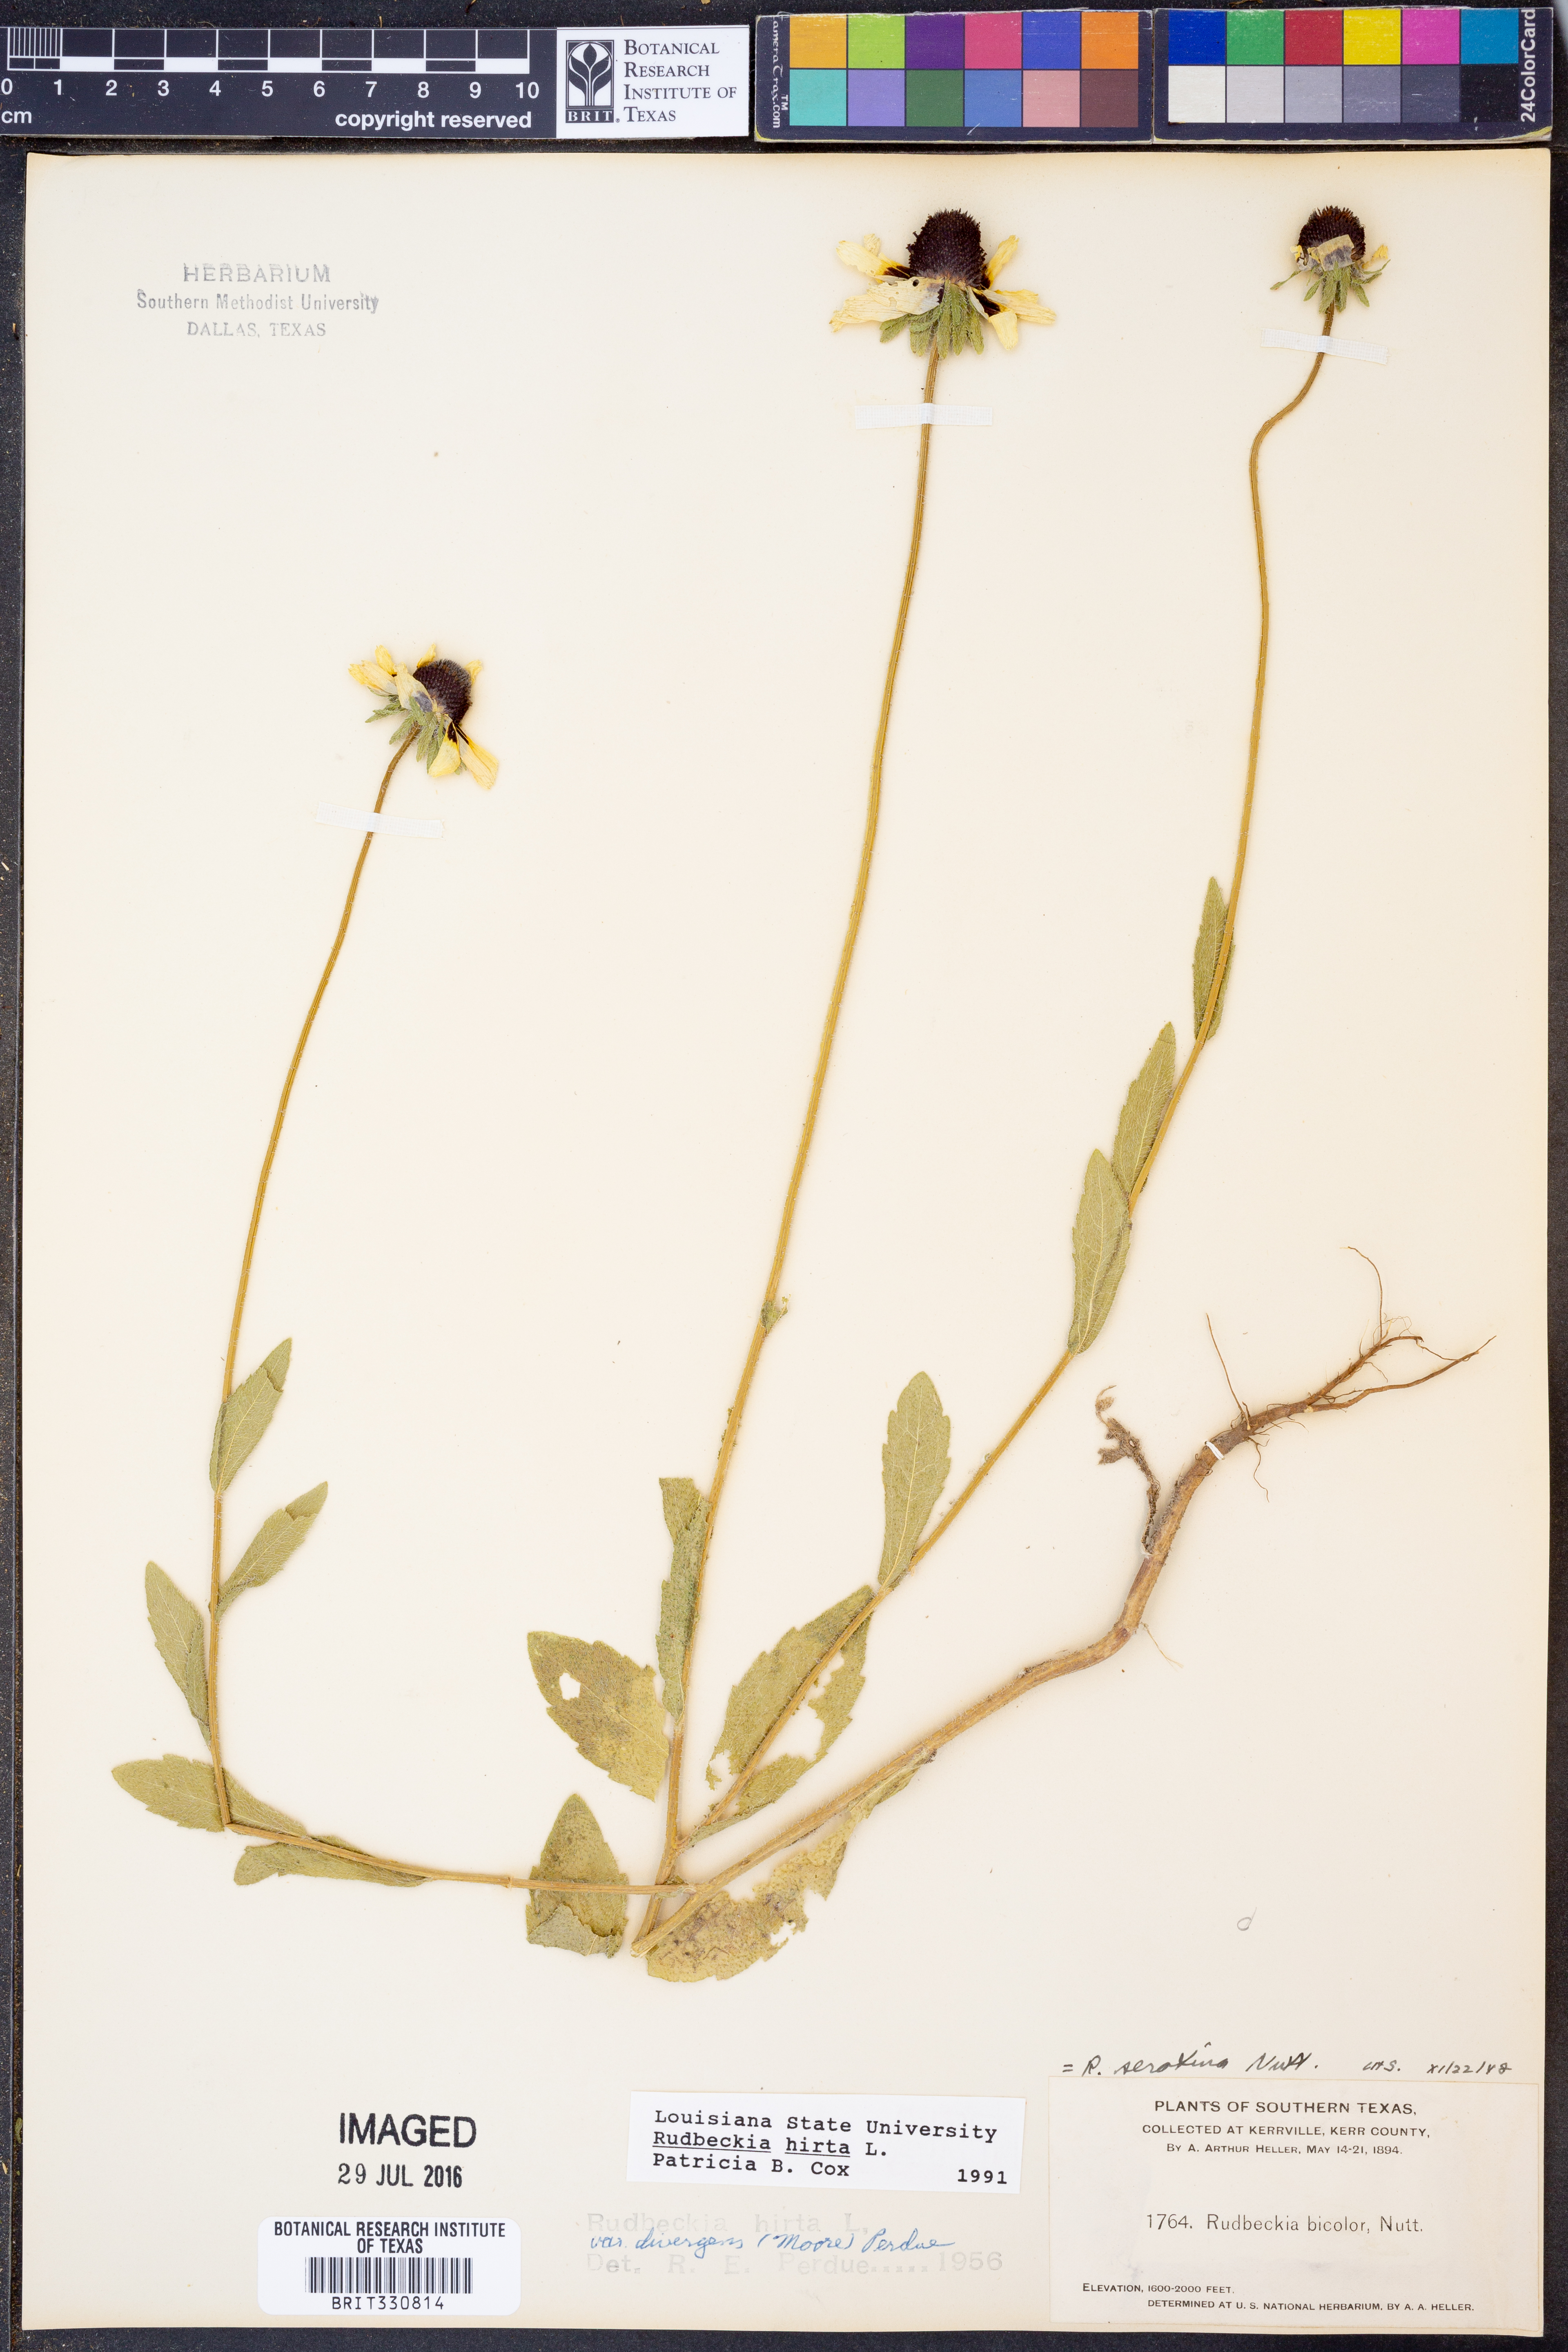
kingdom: Plantae
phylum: Tracheophyta
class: Magnoliopsida
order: Asterales
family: Asteraceae
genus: Rudbeckia
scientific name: Rudbeckia hirta
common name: Black-eyed-susan
